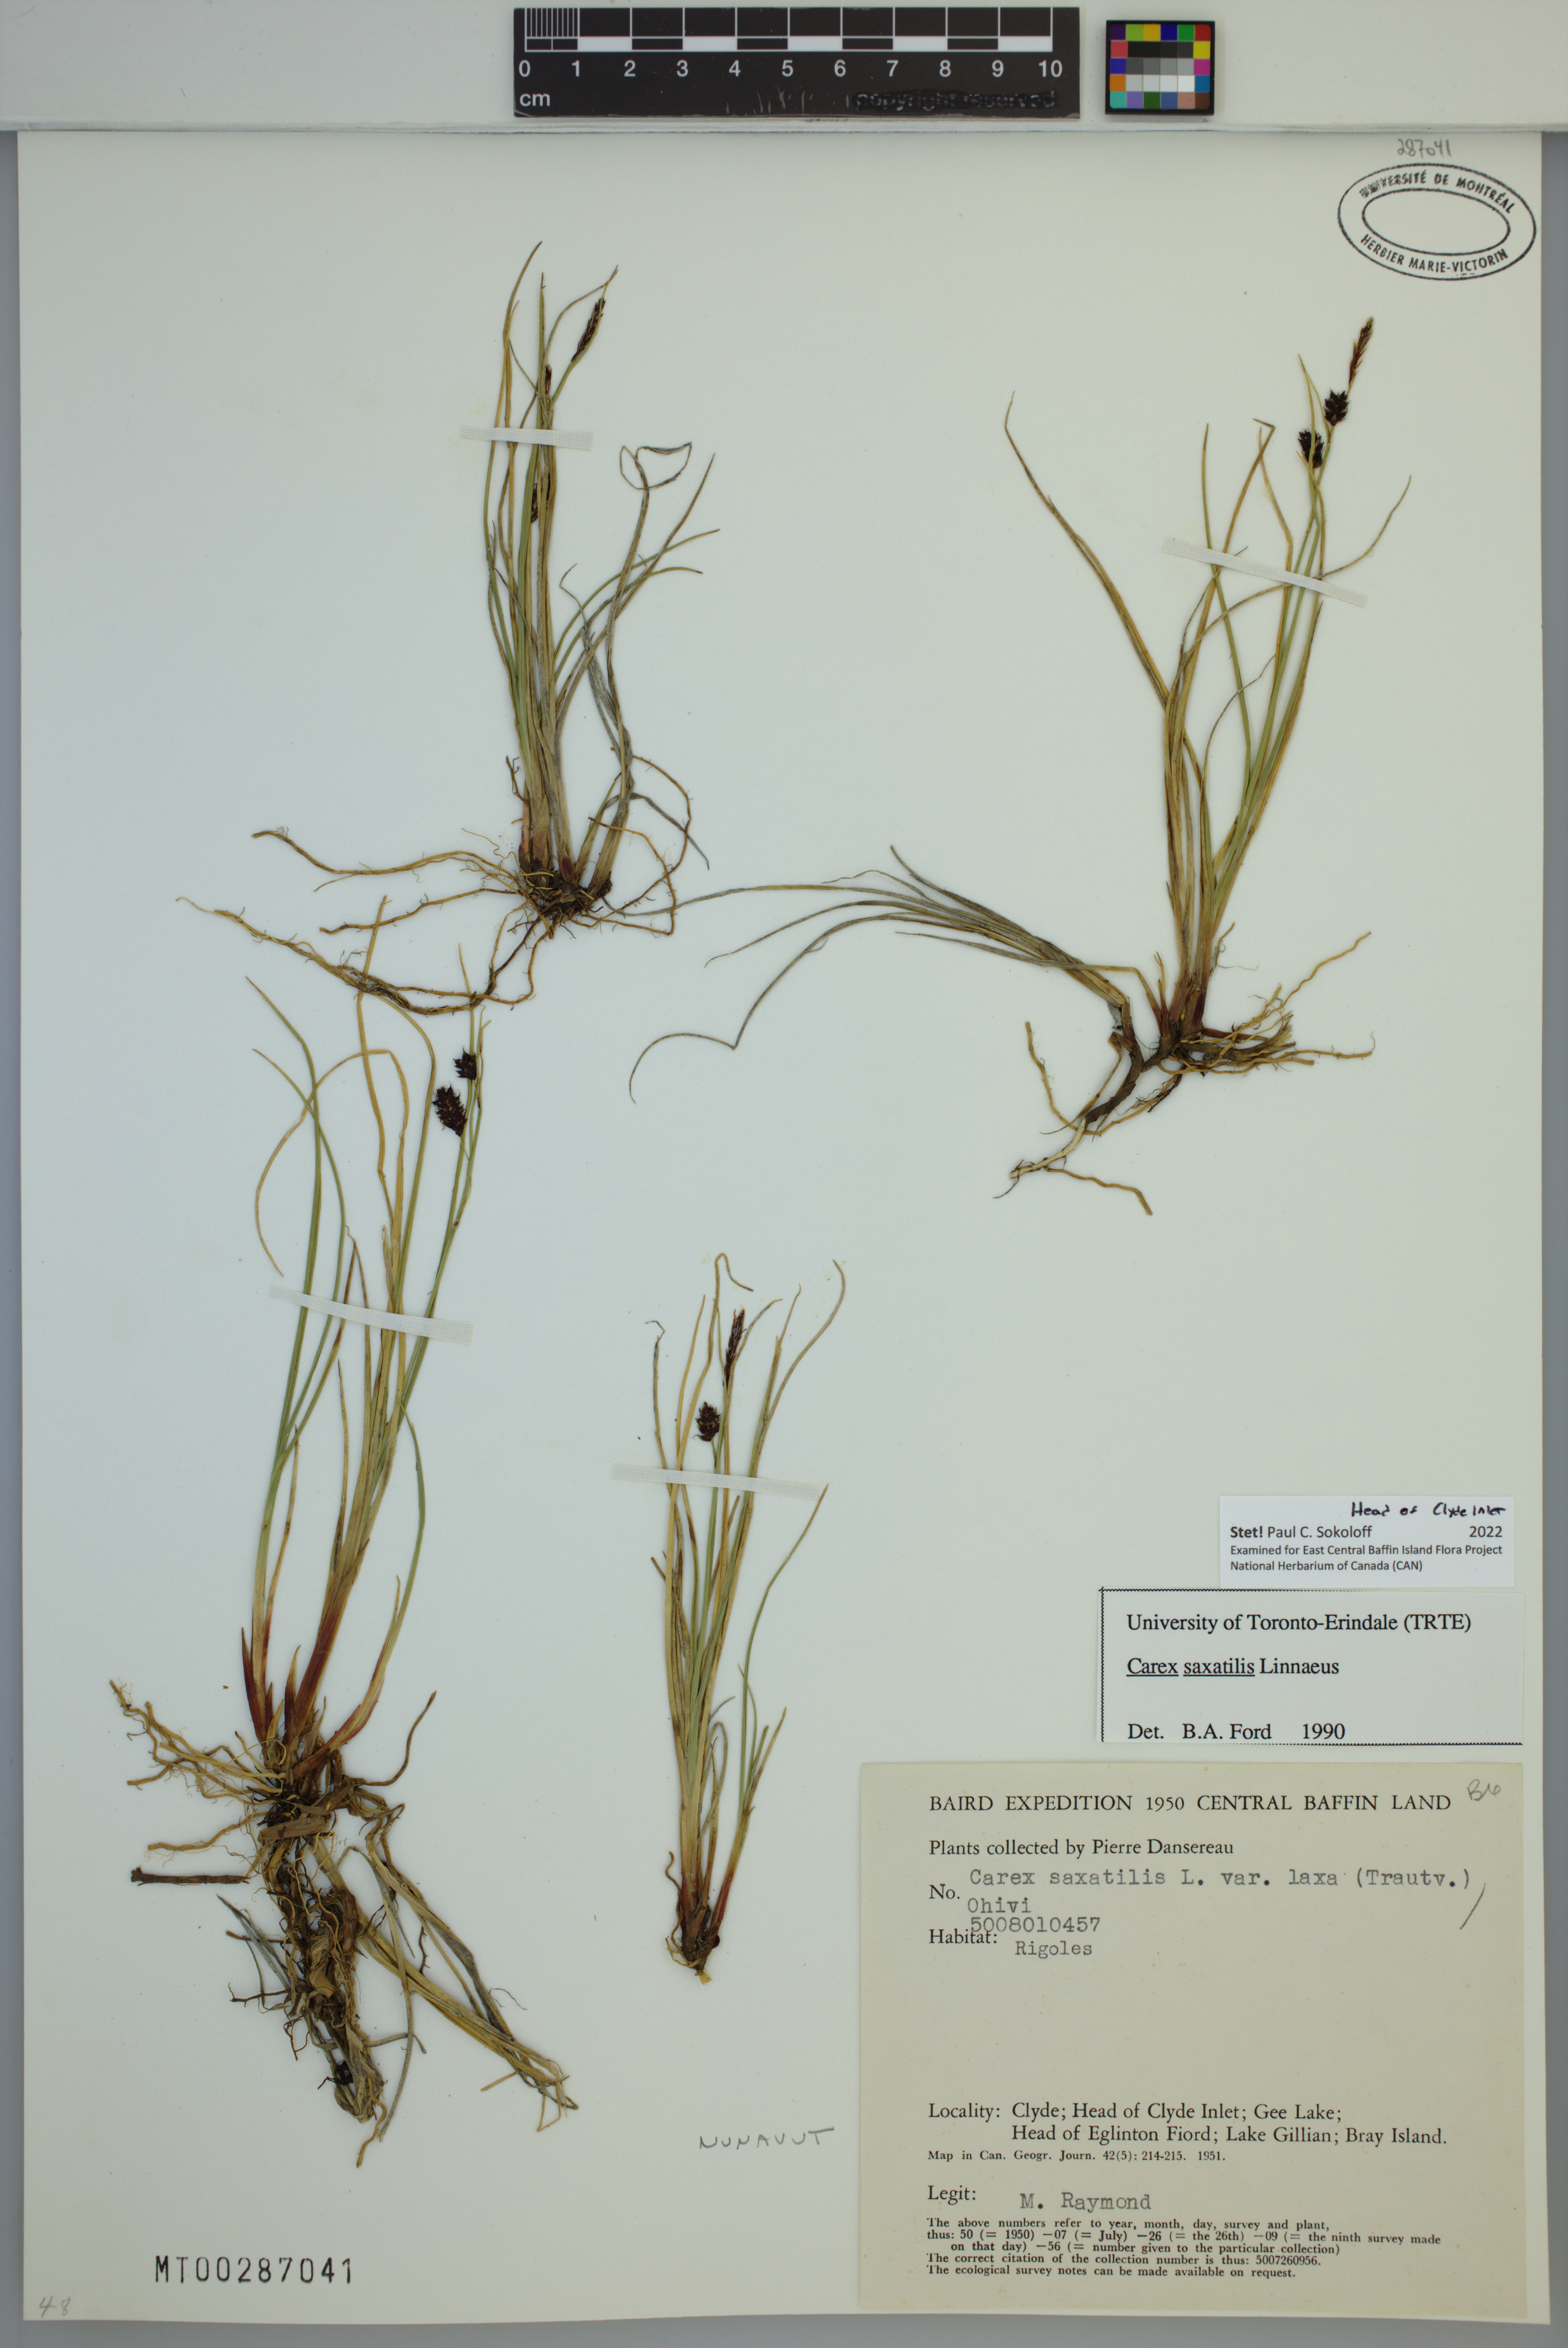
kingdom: Plantae
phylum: Tracheophyta
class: Liliopsida
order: Poales
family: Cyperaceae
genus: Carex
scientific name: Carex saxatilis
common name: Russet sedge
